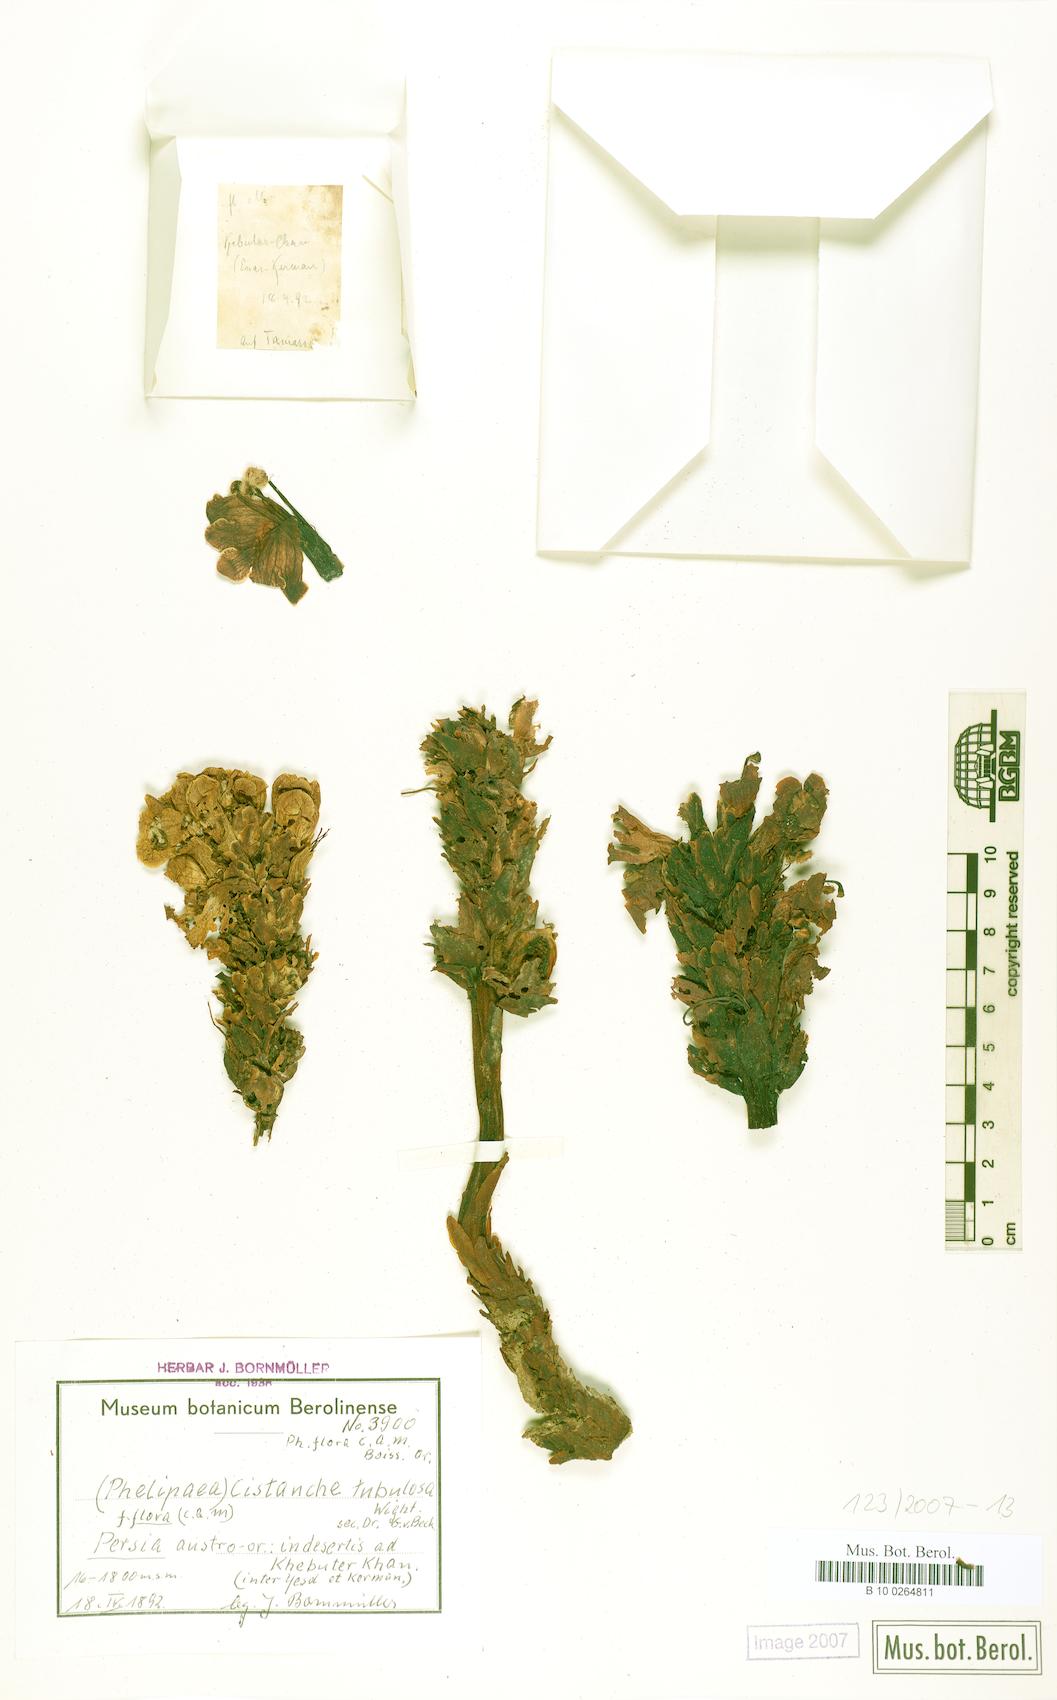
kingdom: Plantae
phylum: Tracheophyta
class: Magnoliopsida
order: Lamiales
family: Orobanchaceae
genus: Cistanche
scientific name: Cistanche flava
